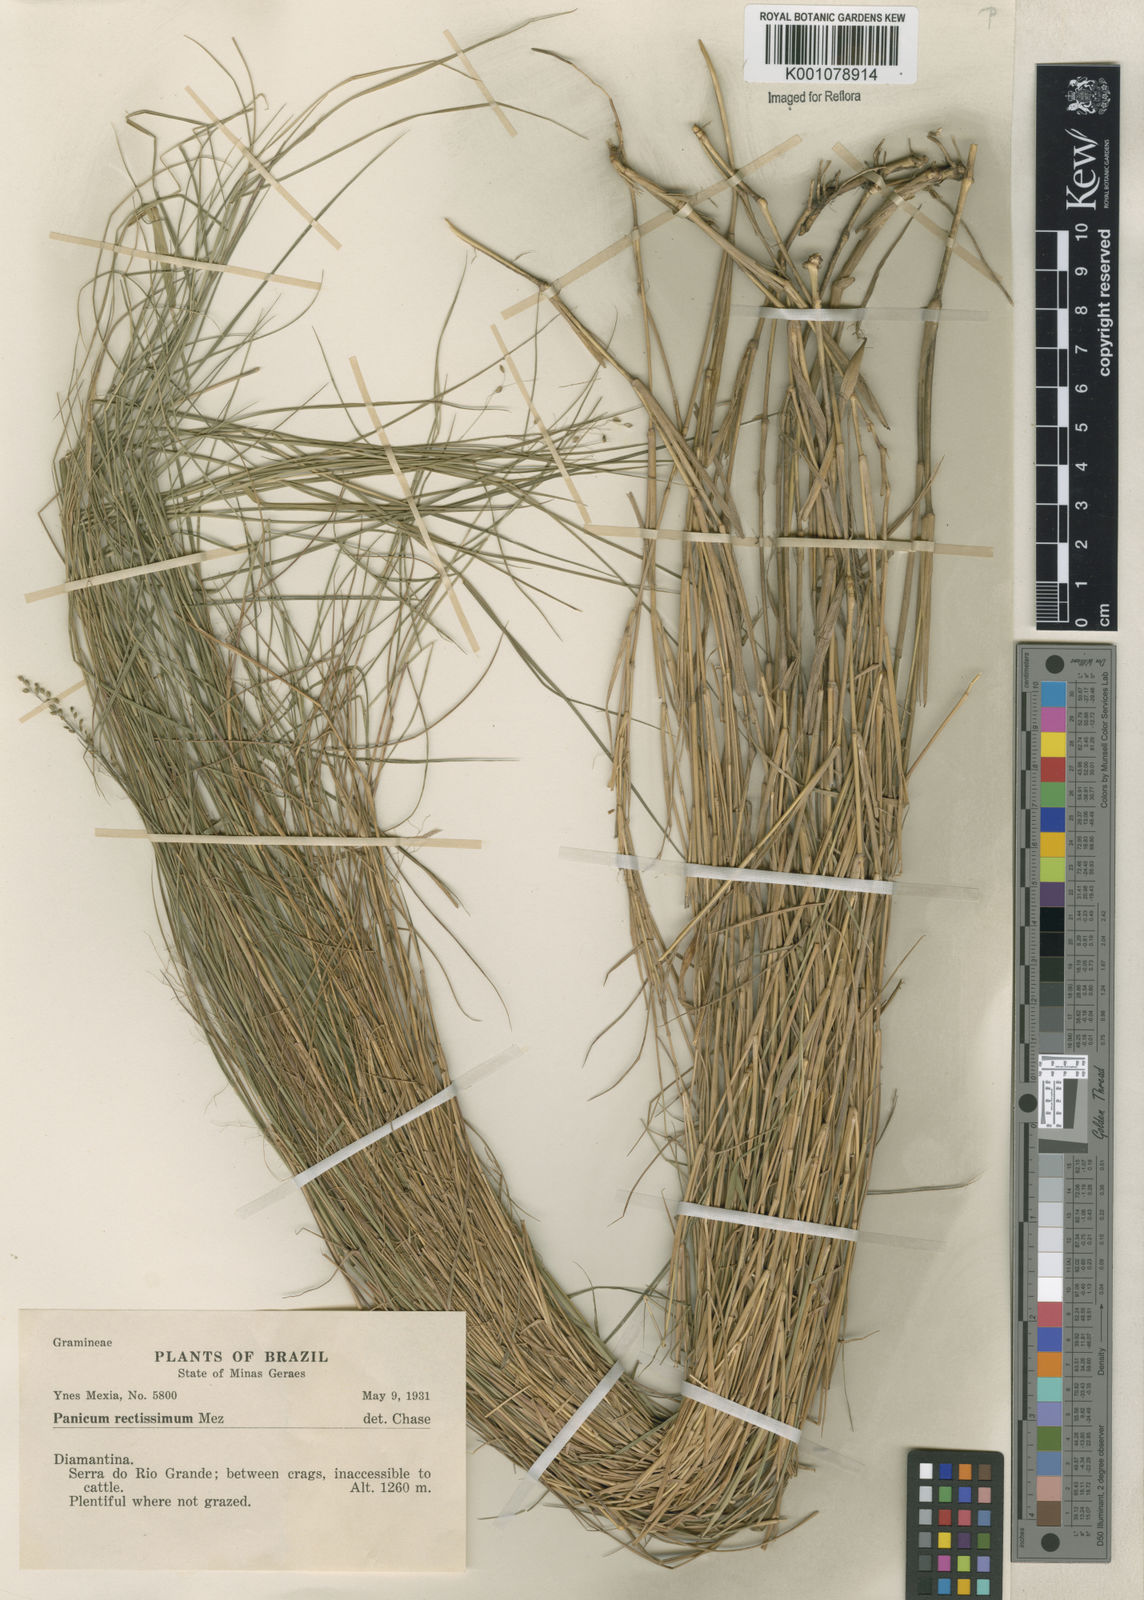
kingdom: Plantae
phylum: Tracheophyta
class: Liliopsida
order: Poales
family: Poaceae
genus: Trichanthecium
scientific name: Trichanthecium cyanescens
